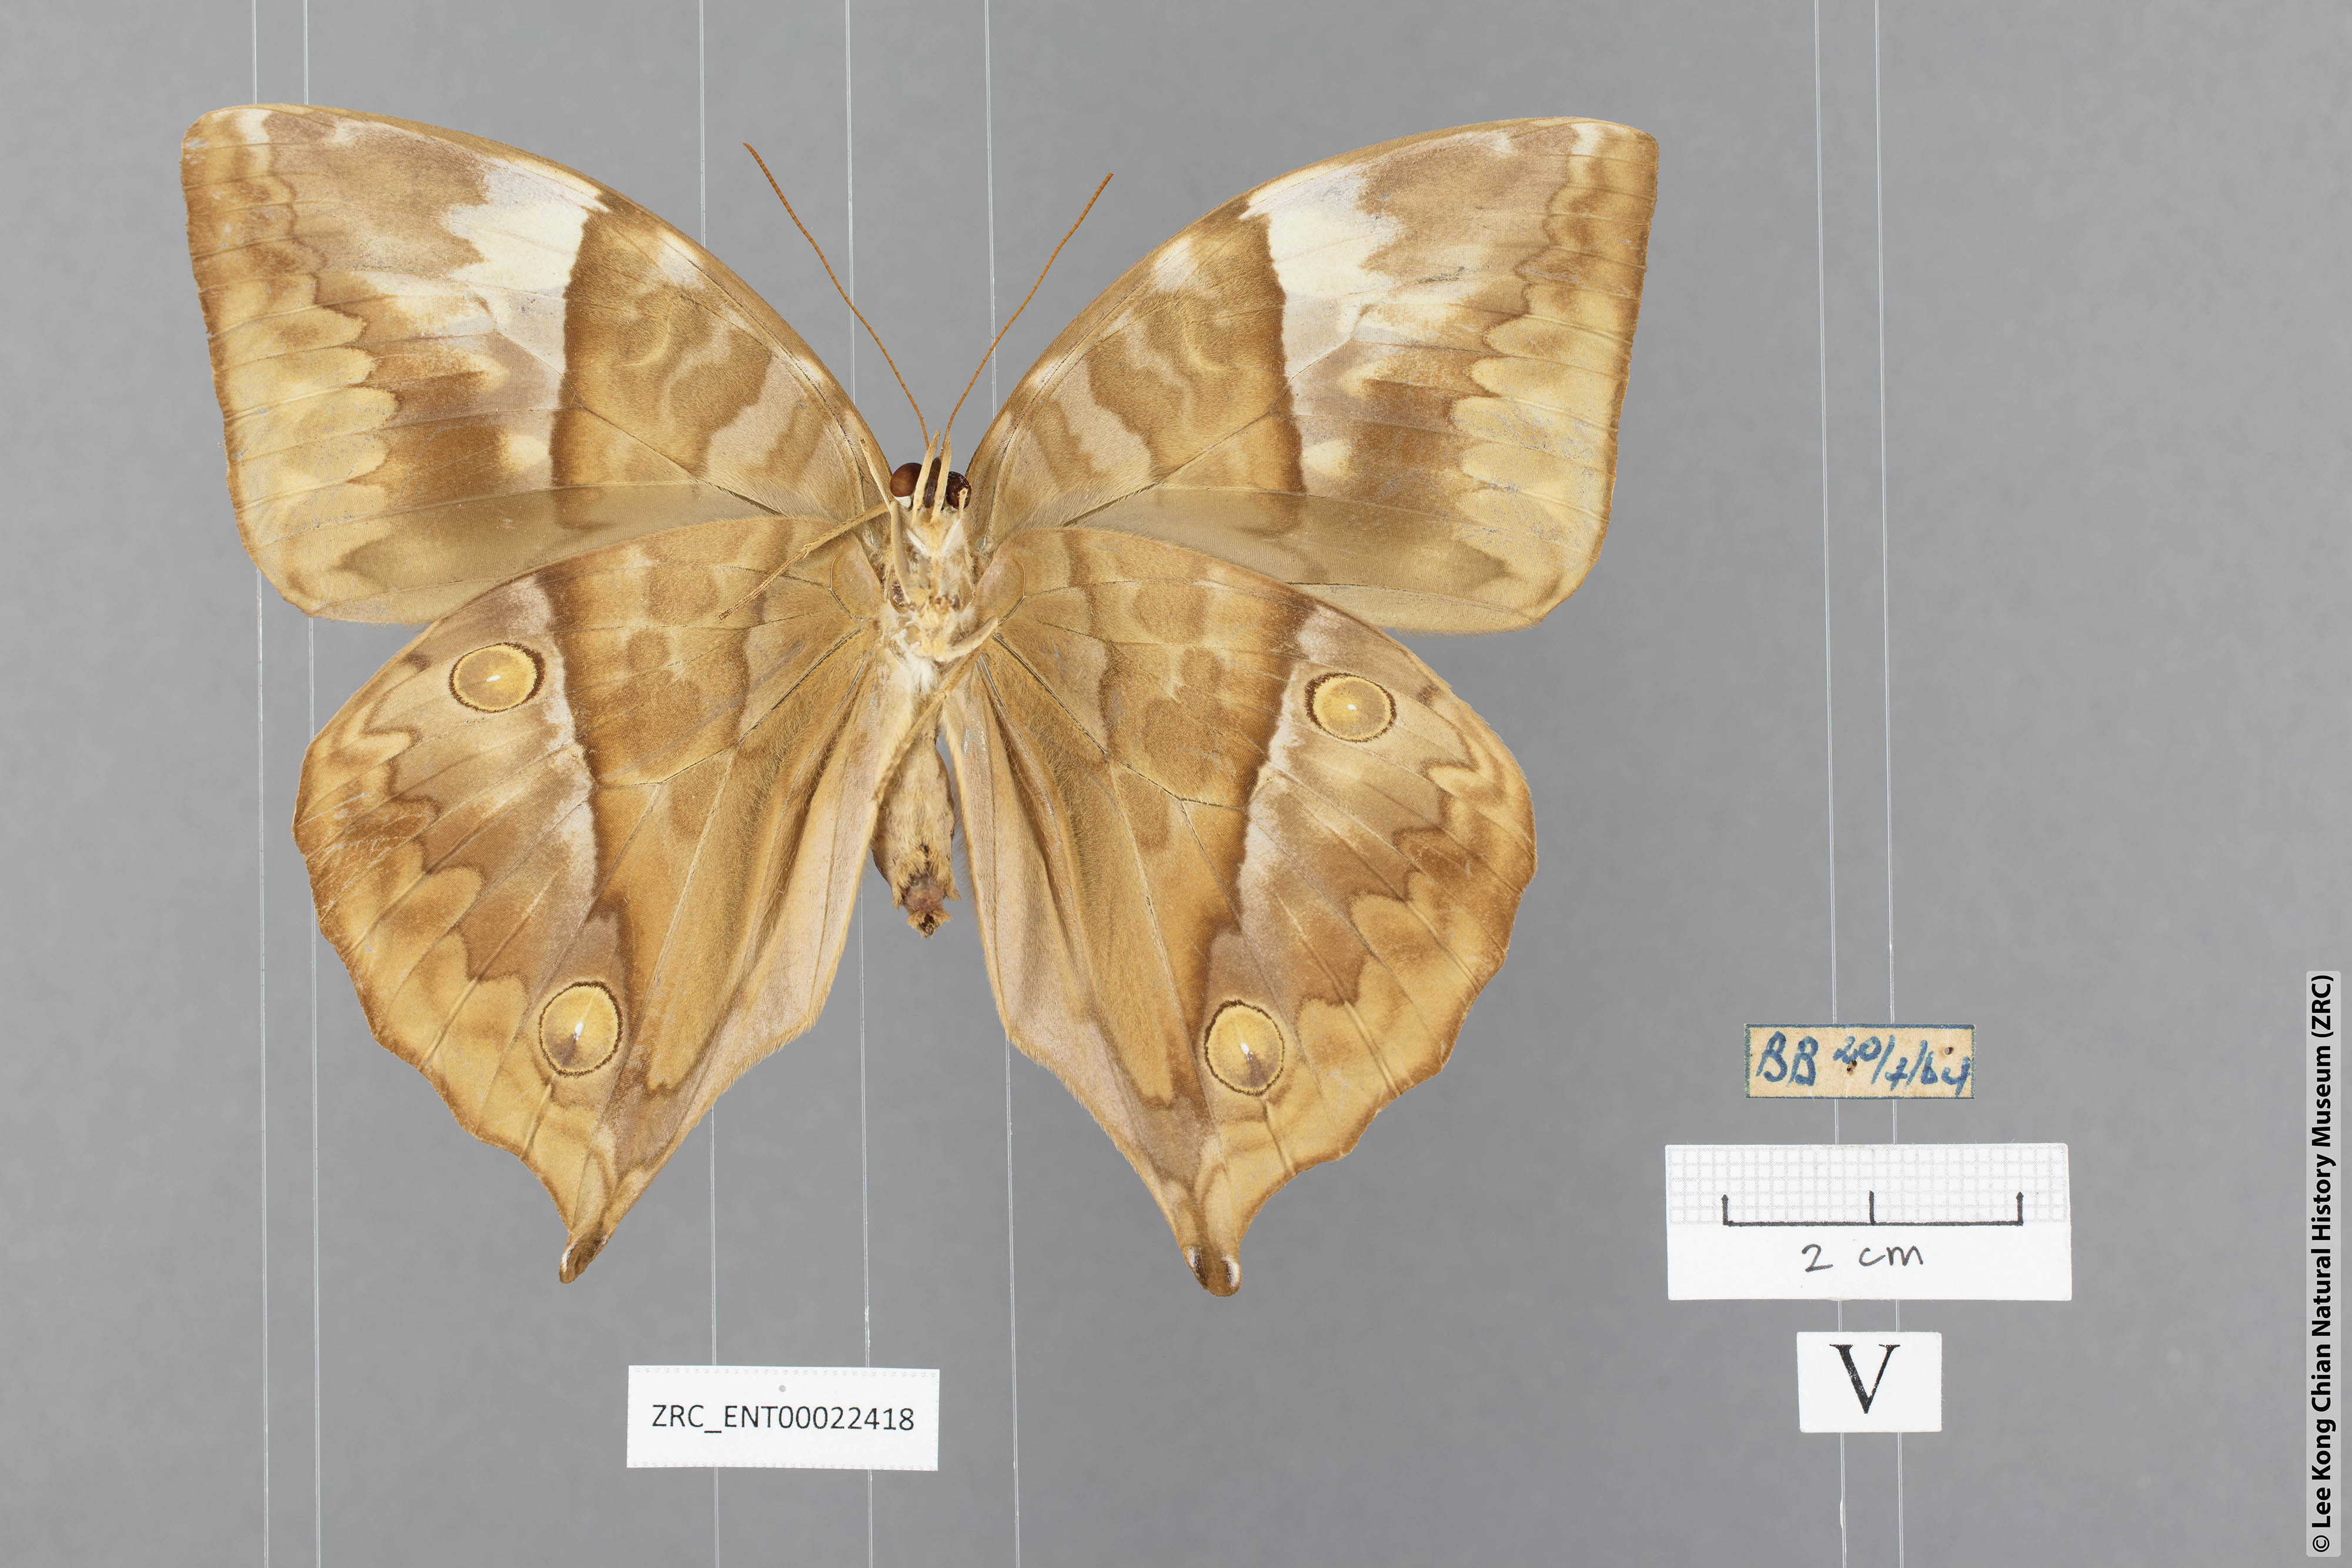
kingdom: Animalia
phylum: Arthropoda
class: Insecta
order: Lepidoptera
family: Nymphalidae
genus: Zeuxidia
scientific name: Zeuxidia ameythystus
